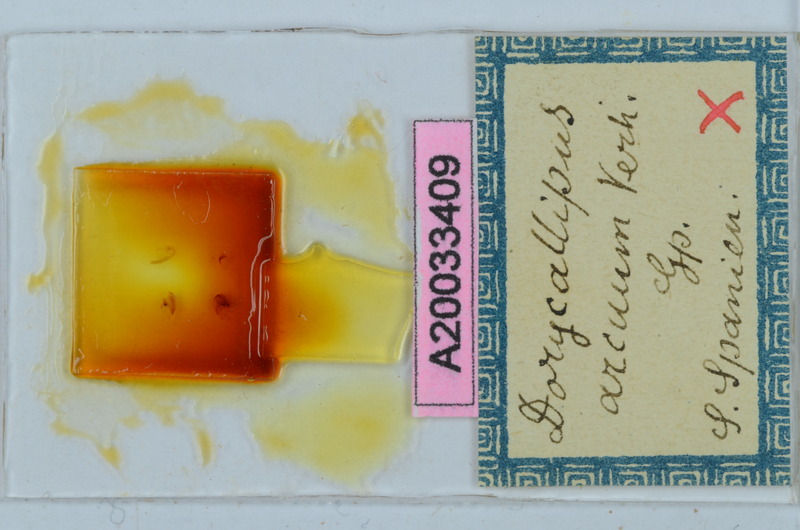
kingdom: Animalia
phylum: Arthropoda
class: Diplopoda
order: Callipodida
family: Dorypetalidae
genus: Dorycallipus
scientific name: Dorycallipus arcuum
